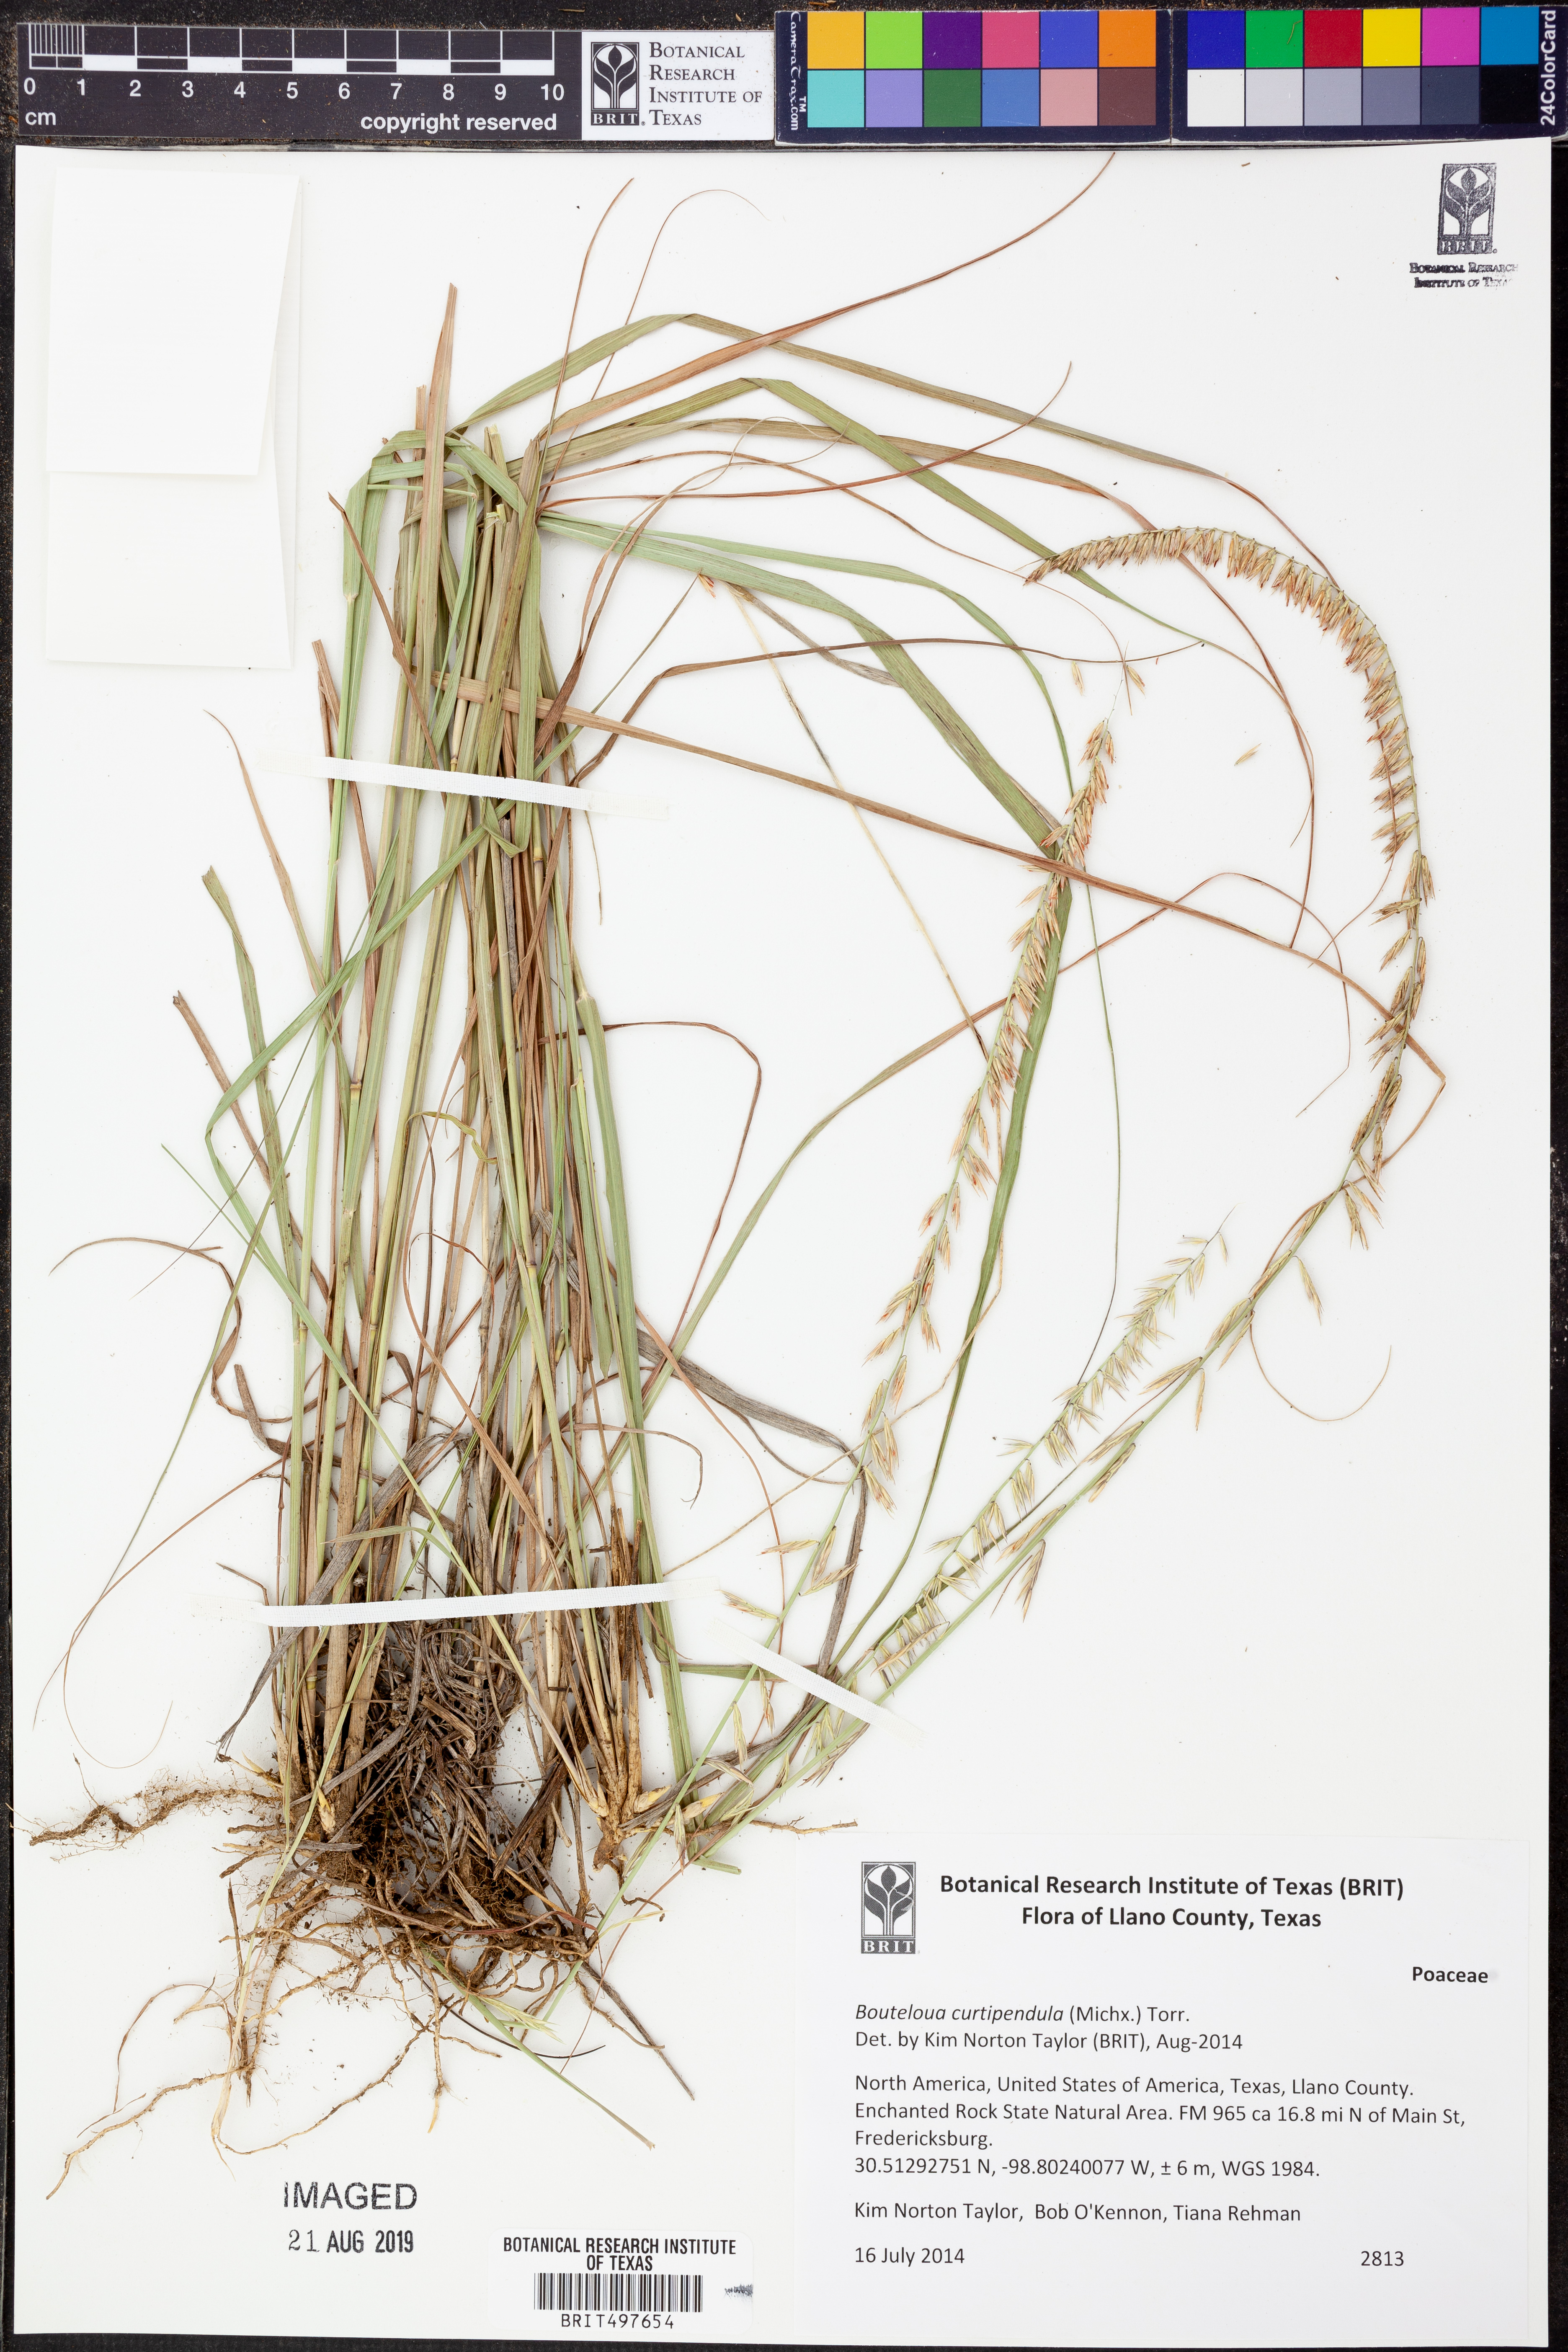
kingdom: Plantae
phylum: Tracheophyta
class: Liliopsida
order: Poales
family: Poaceae
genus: Bouteloua
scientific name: Bouteloua curtipendula
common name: Side-oats grama
